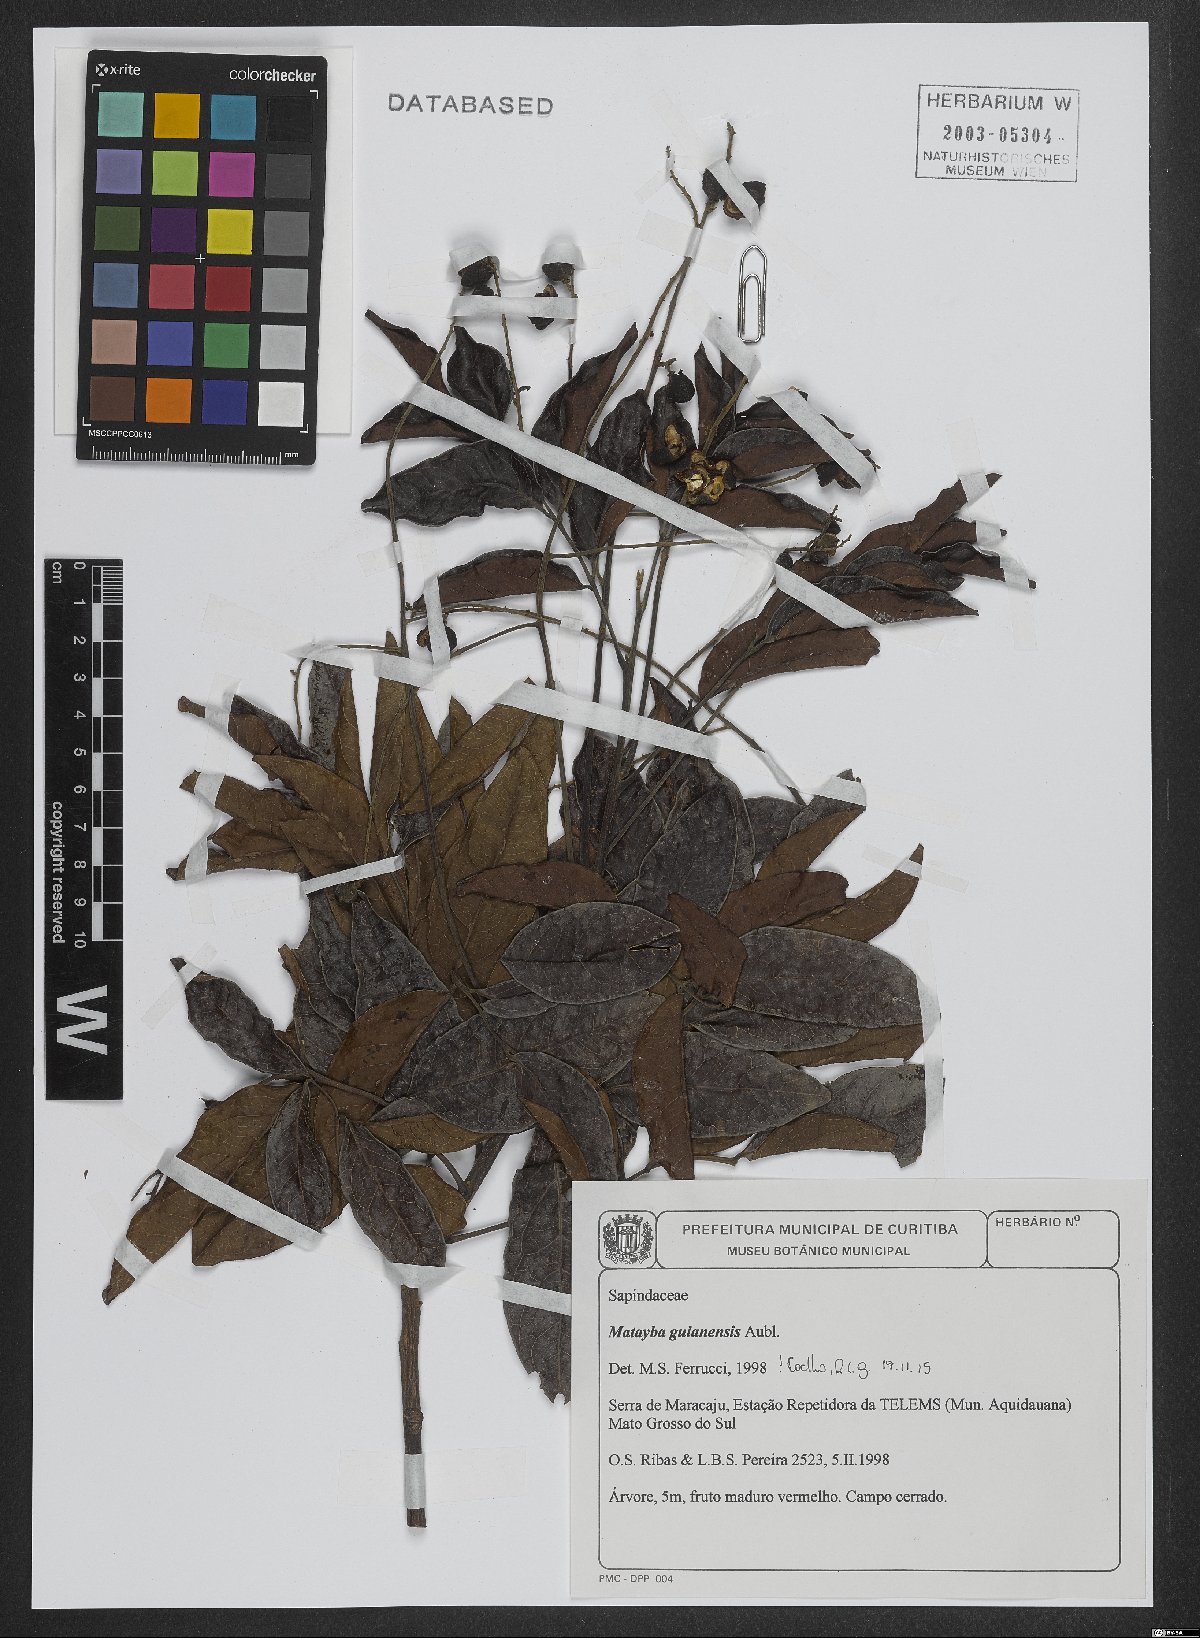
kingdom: Plantae
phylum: Tracheophyta
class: Magnoliopsida
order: Sapindales
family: Sapindaceae
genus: Matayba
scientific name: Matayba guianensis
